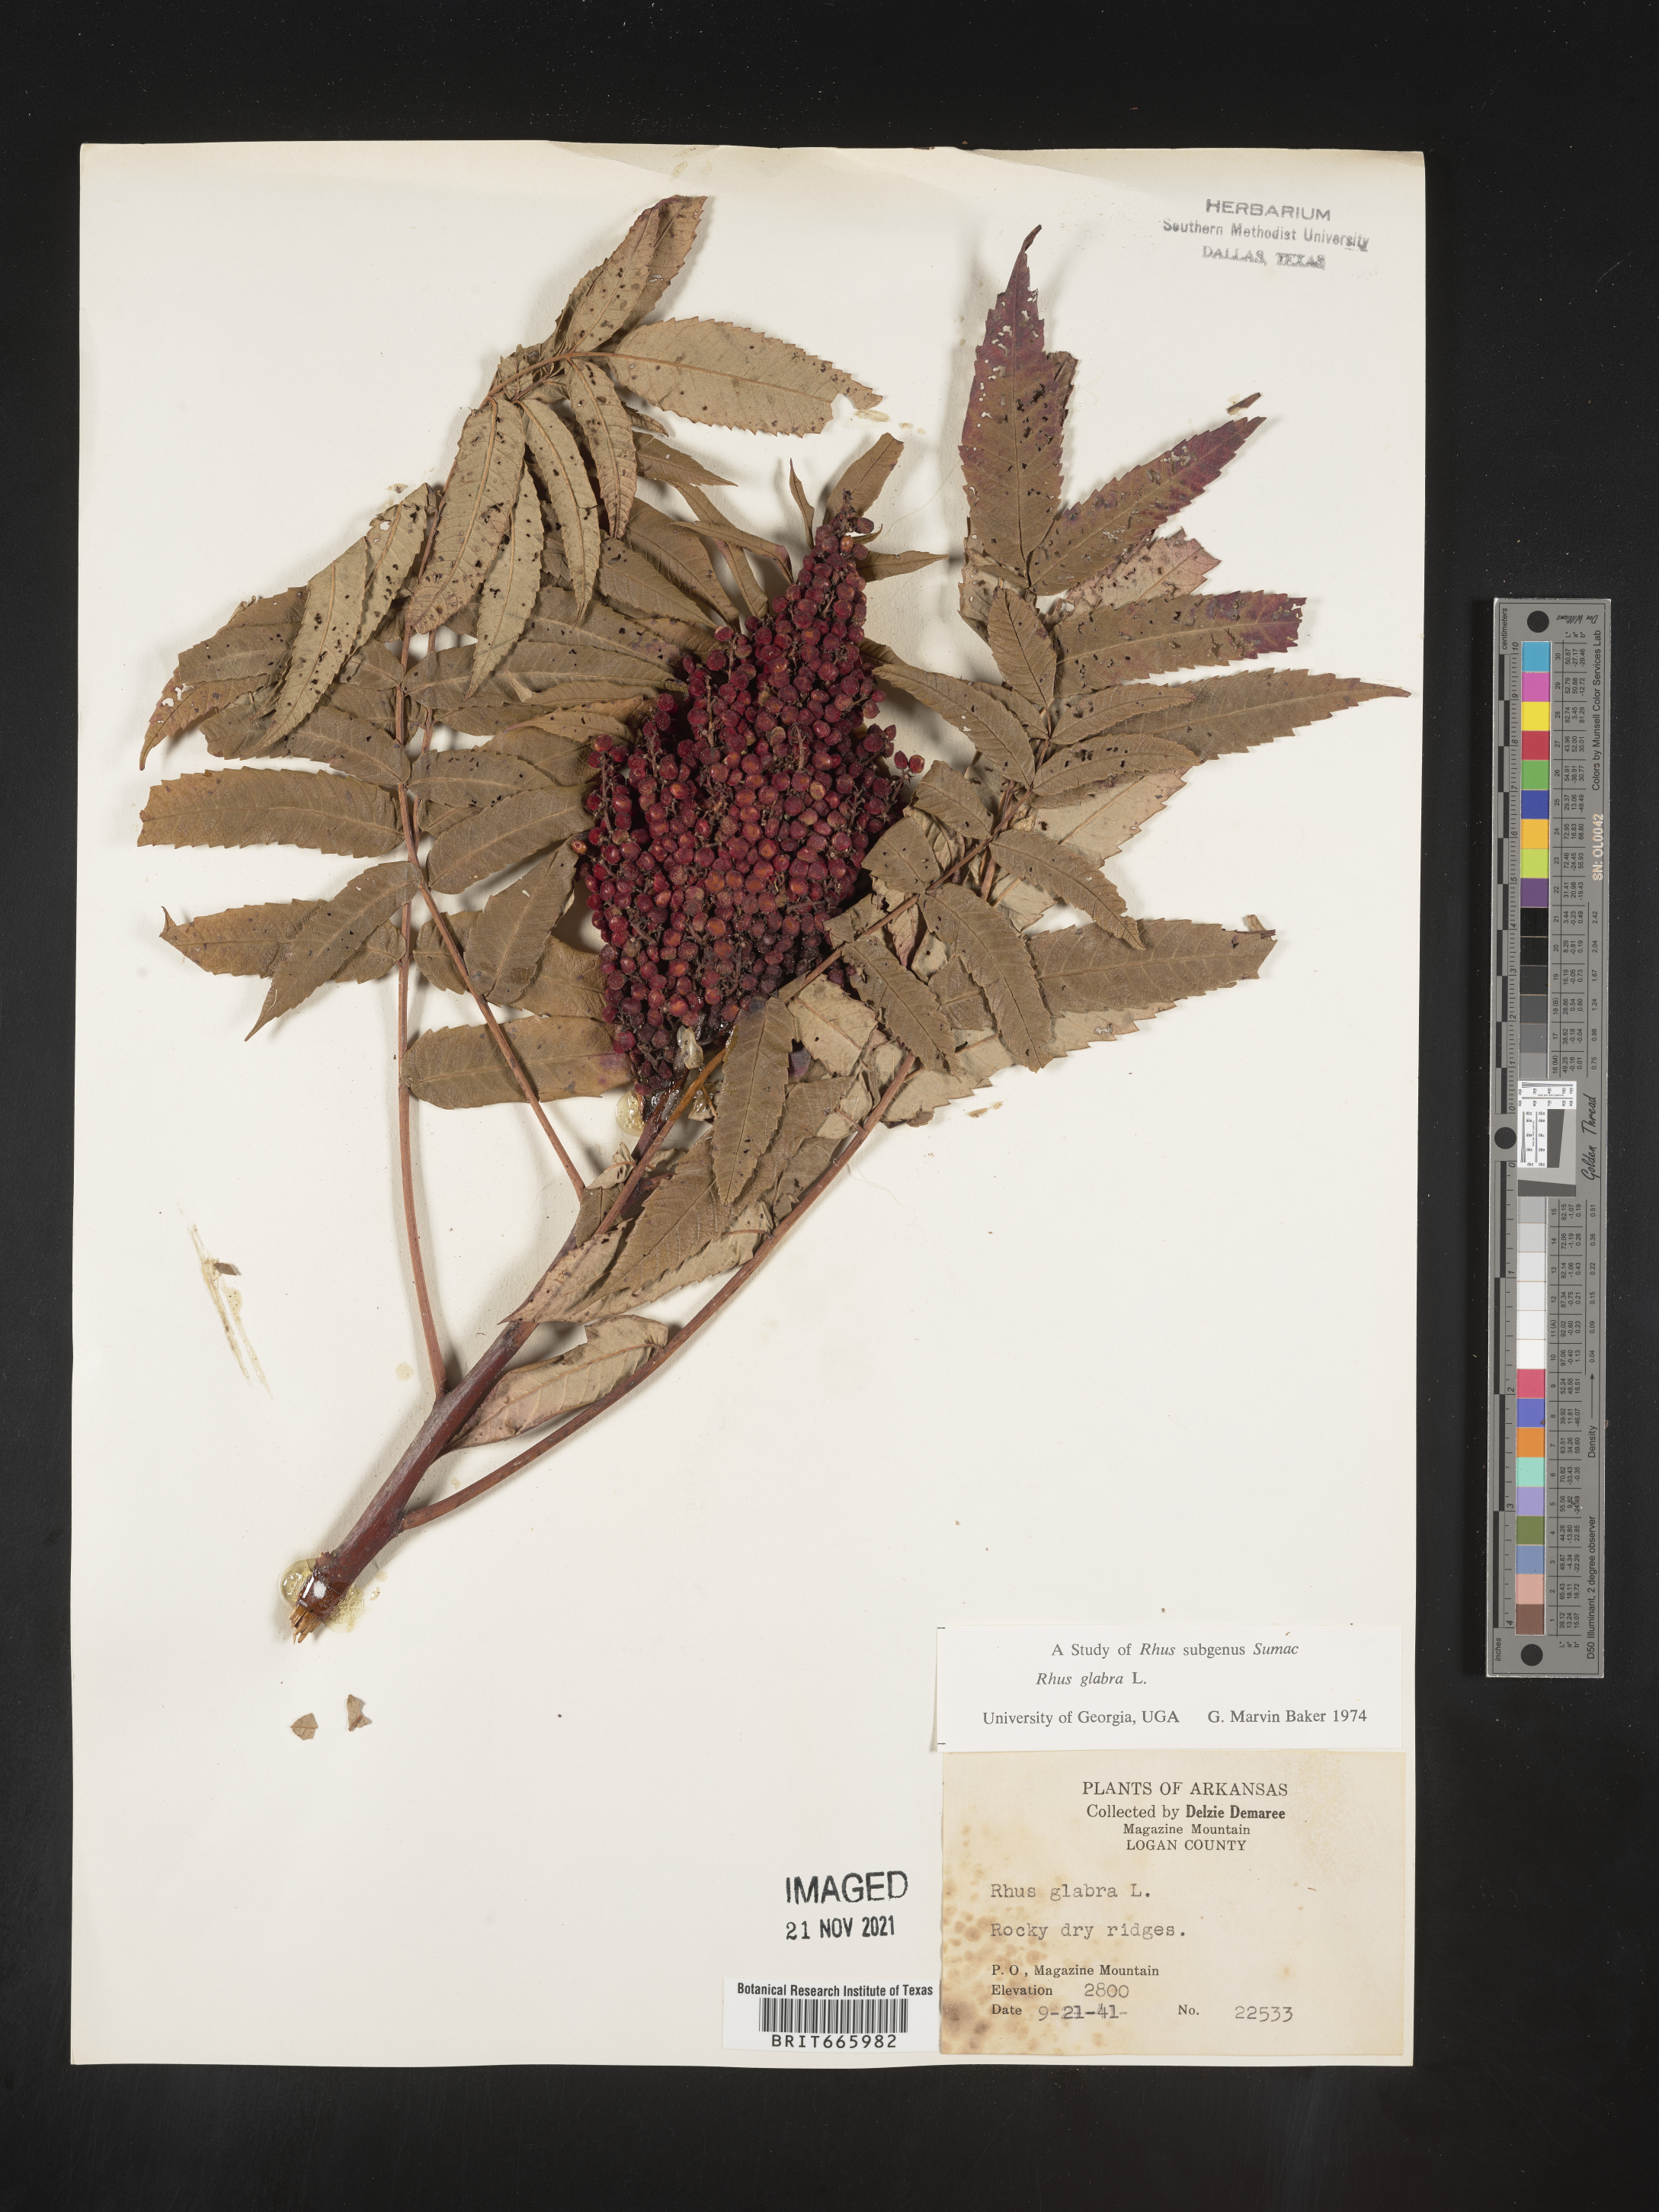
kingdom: Plantae
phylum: Tracheophyta
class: Magnoliopsida
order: Sapindales
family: Anacardiaceae
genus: Rhus
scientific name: Rhus glabra
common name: Scarlet sumac
